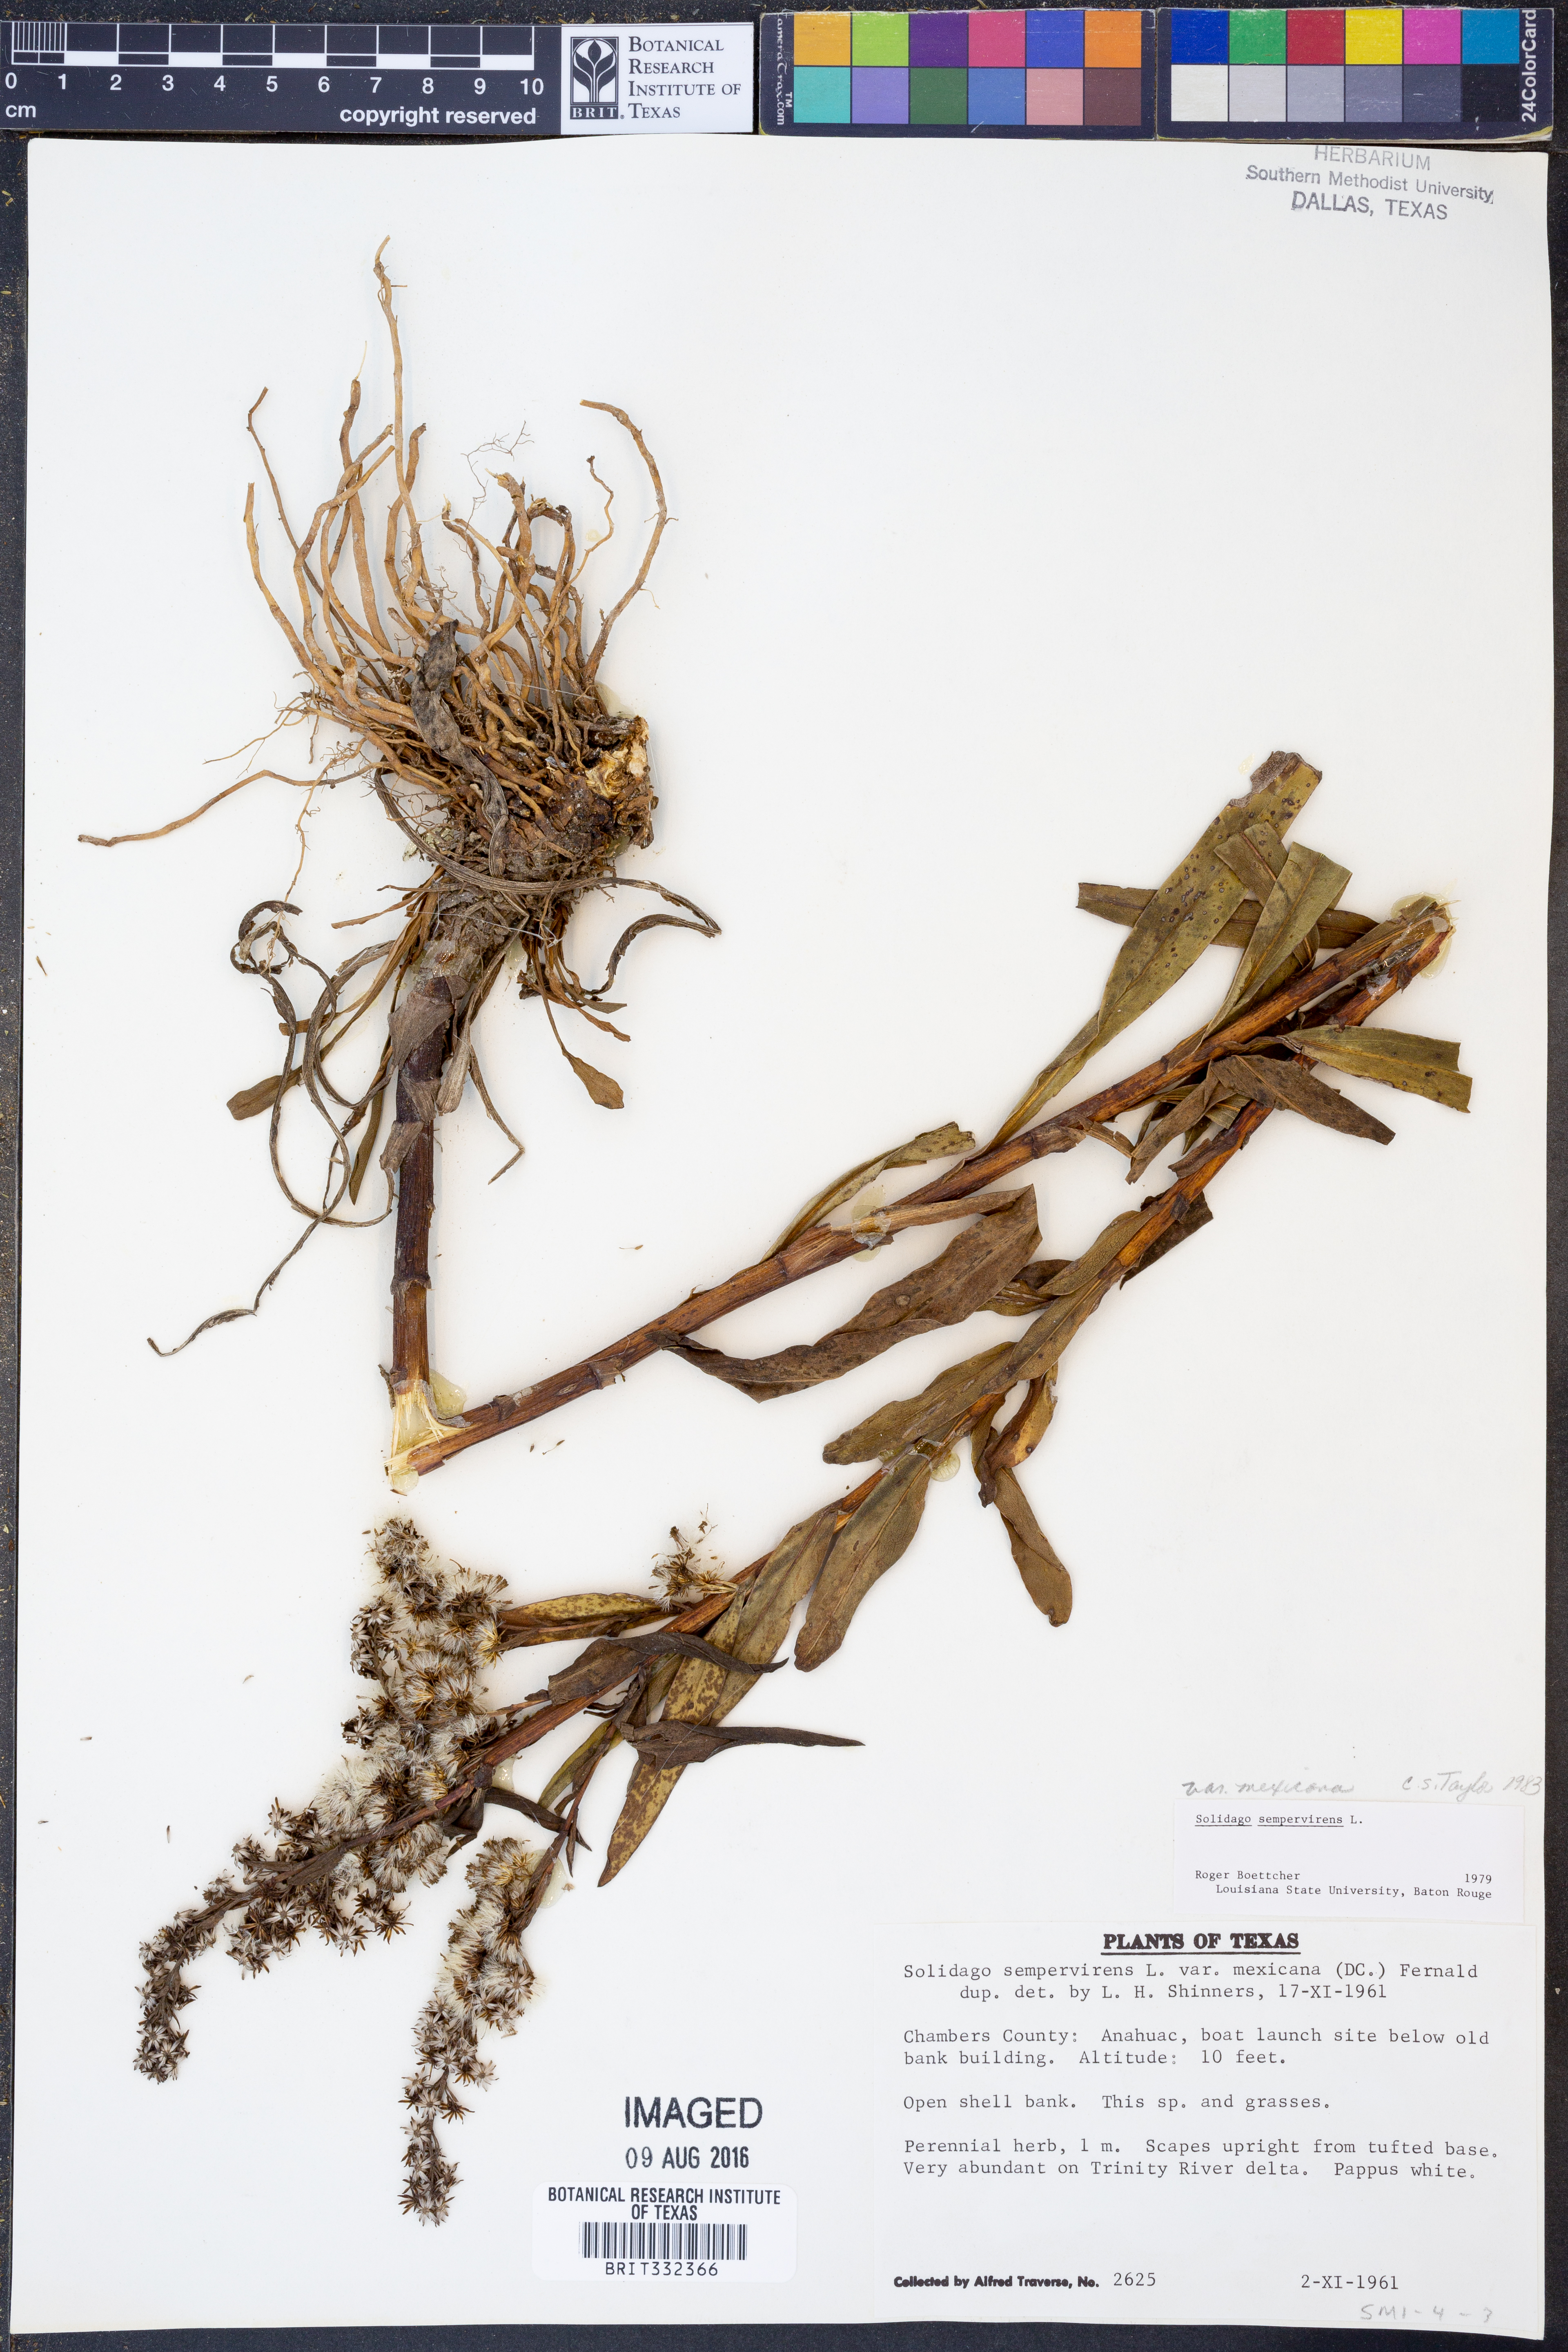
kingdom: Plantae
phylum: Tracheophyta
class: Magnoliopsida
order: Asterales
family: Asteraceae
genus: Solidago
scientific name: Solidago mexicana
